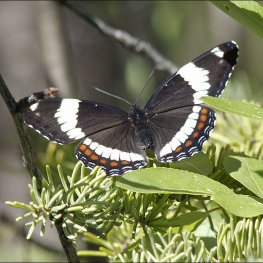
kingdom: Animalia
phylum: Arthropoda
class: Insecta
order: Lepidoptera
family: Nymphalidae
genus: Limenitis
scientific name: Limenitis arthemis
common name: Red-spotted Admiral
